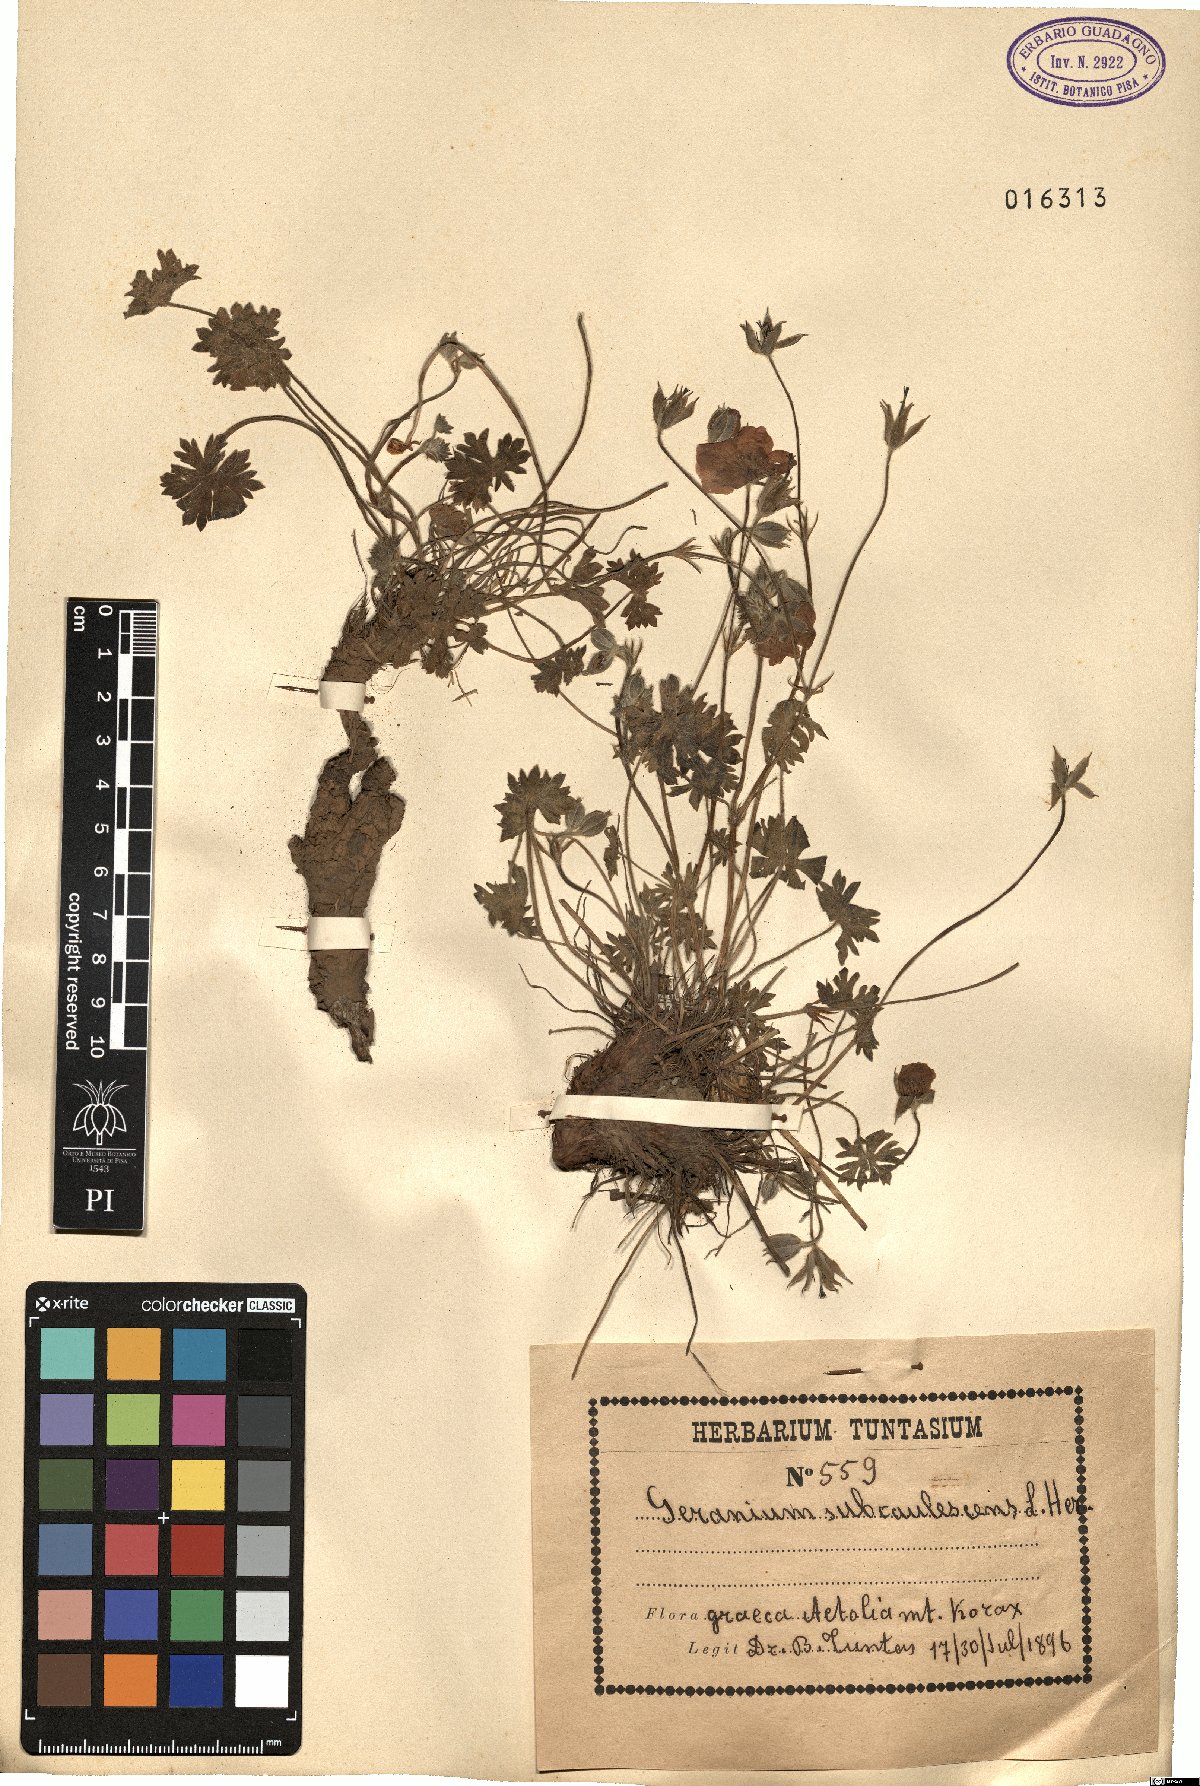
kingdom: Plantae
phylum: Tracheophyta
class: Magnoliopsida
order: Geraniales
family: Geraniaceae
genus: Geranium
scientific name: Geranium subcaulescens
